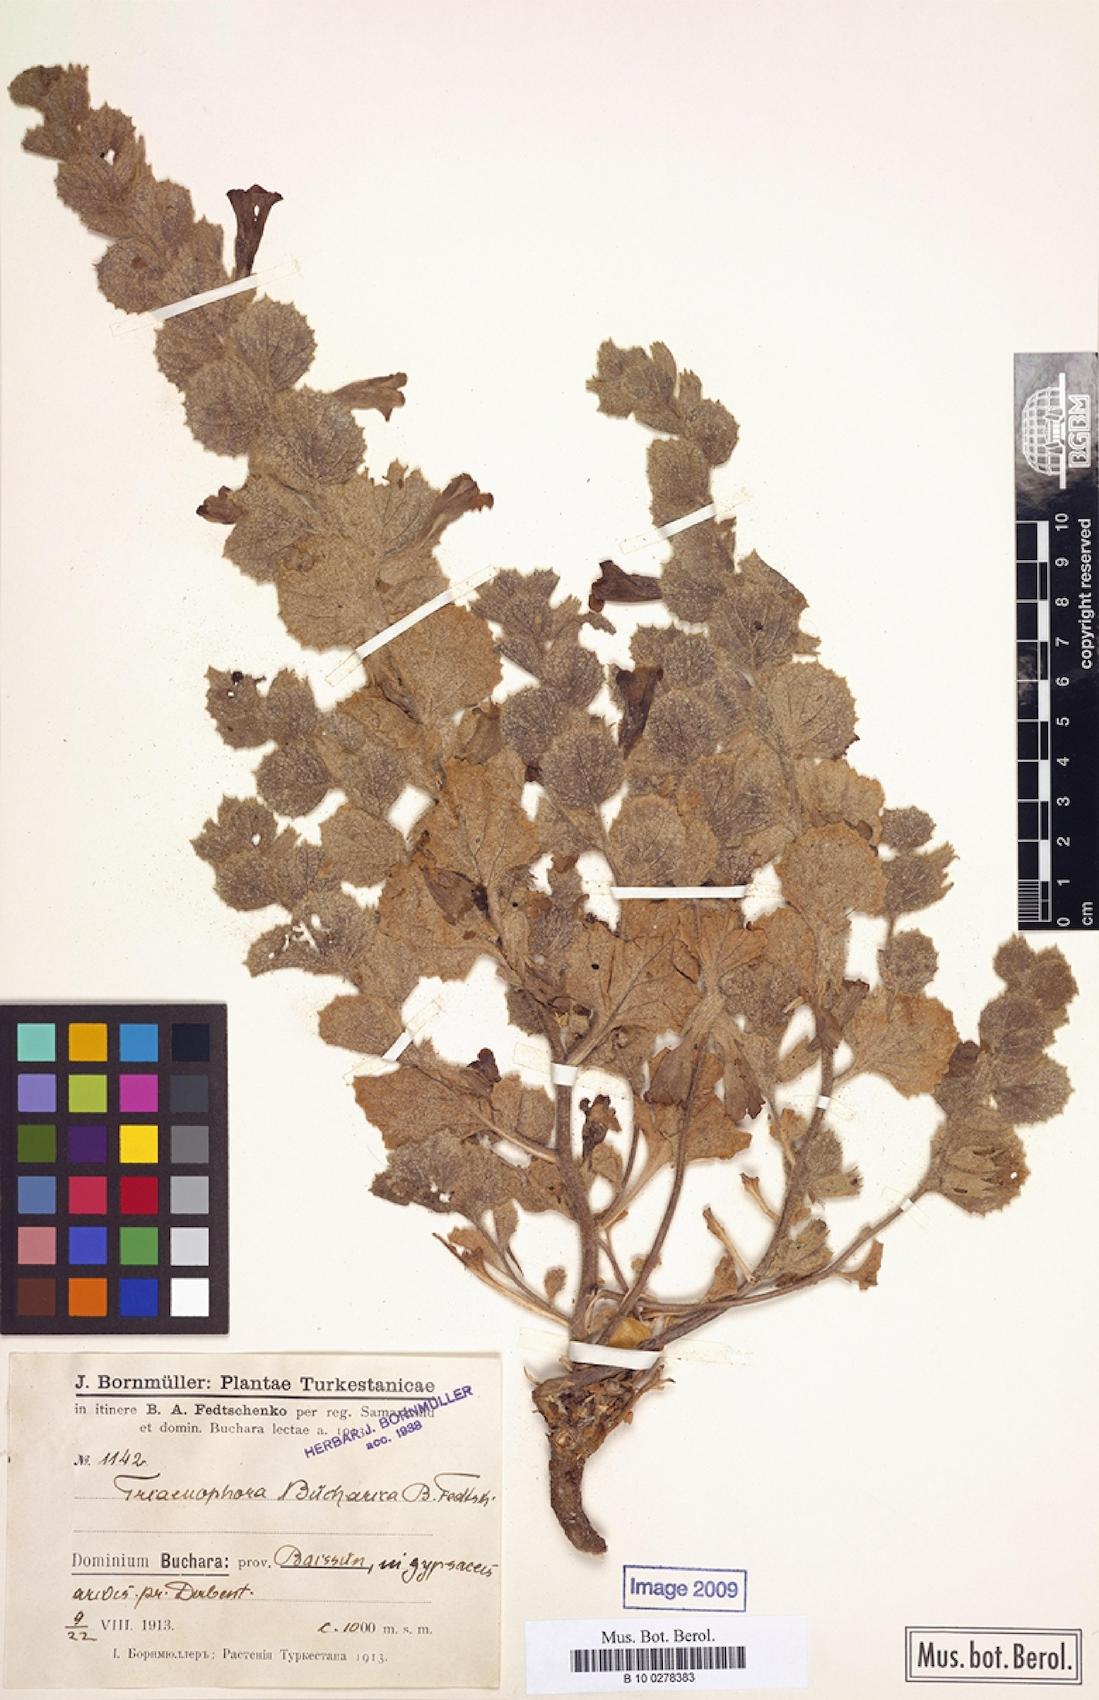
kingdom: Plantae
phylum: Tracheophyta
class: Magnoliopsida
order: Lamiales
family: Rehmanniaceae
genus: Triaenophora
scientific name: Triaenophora bucharica
